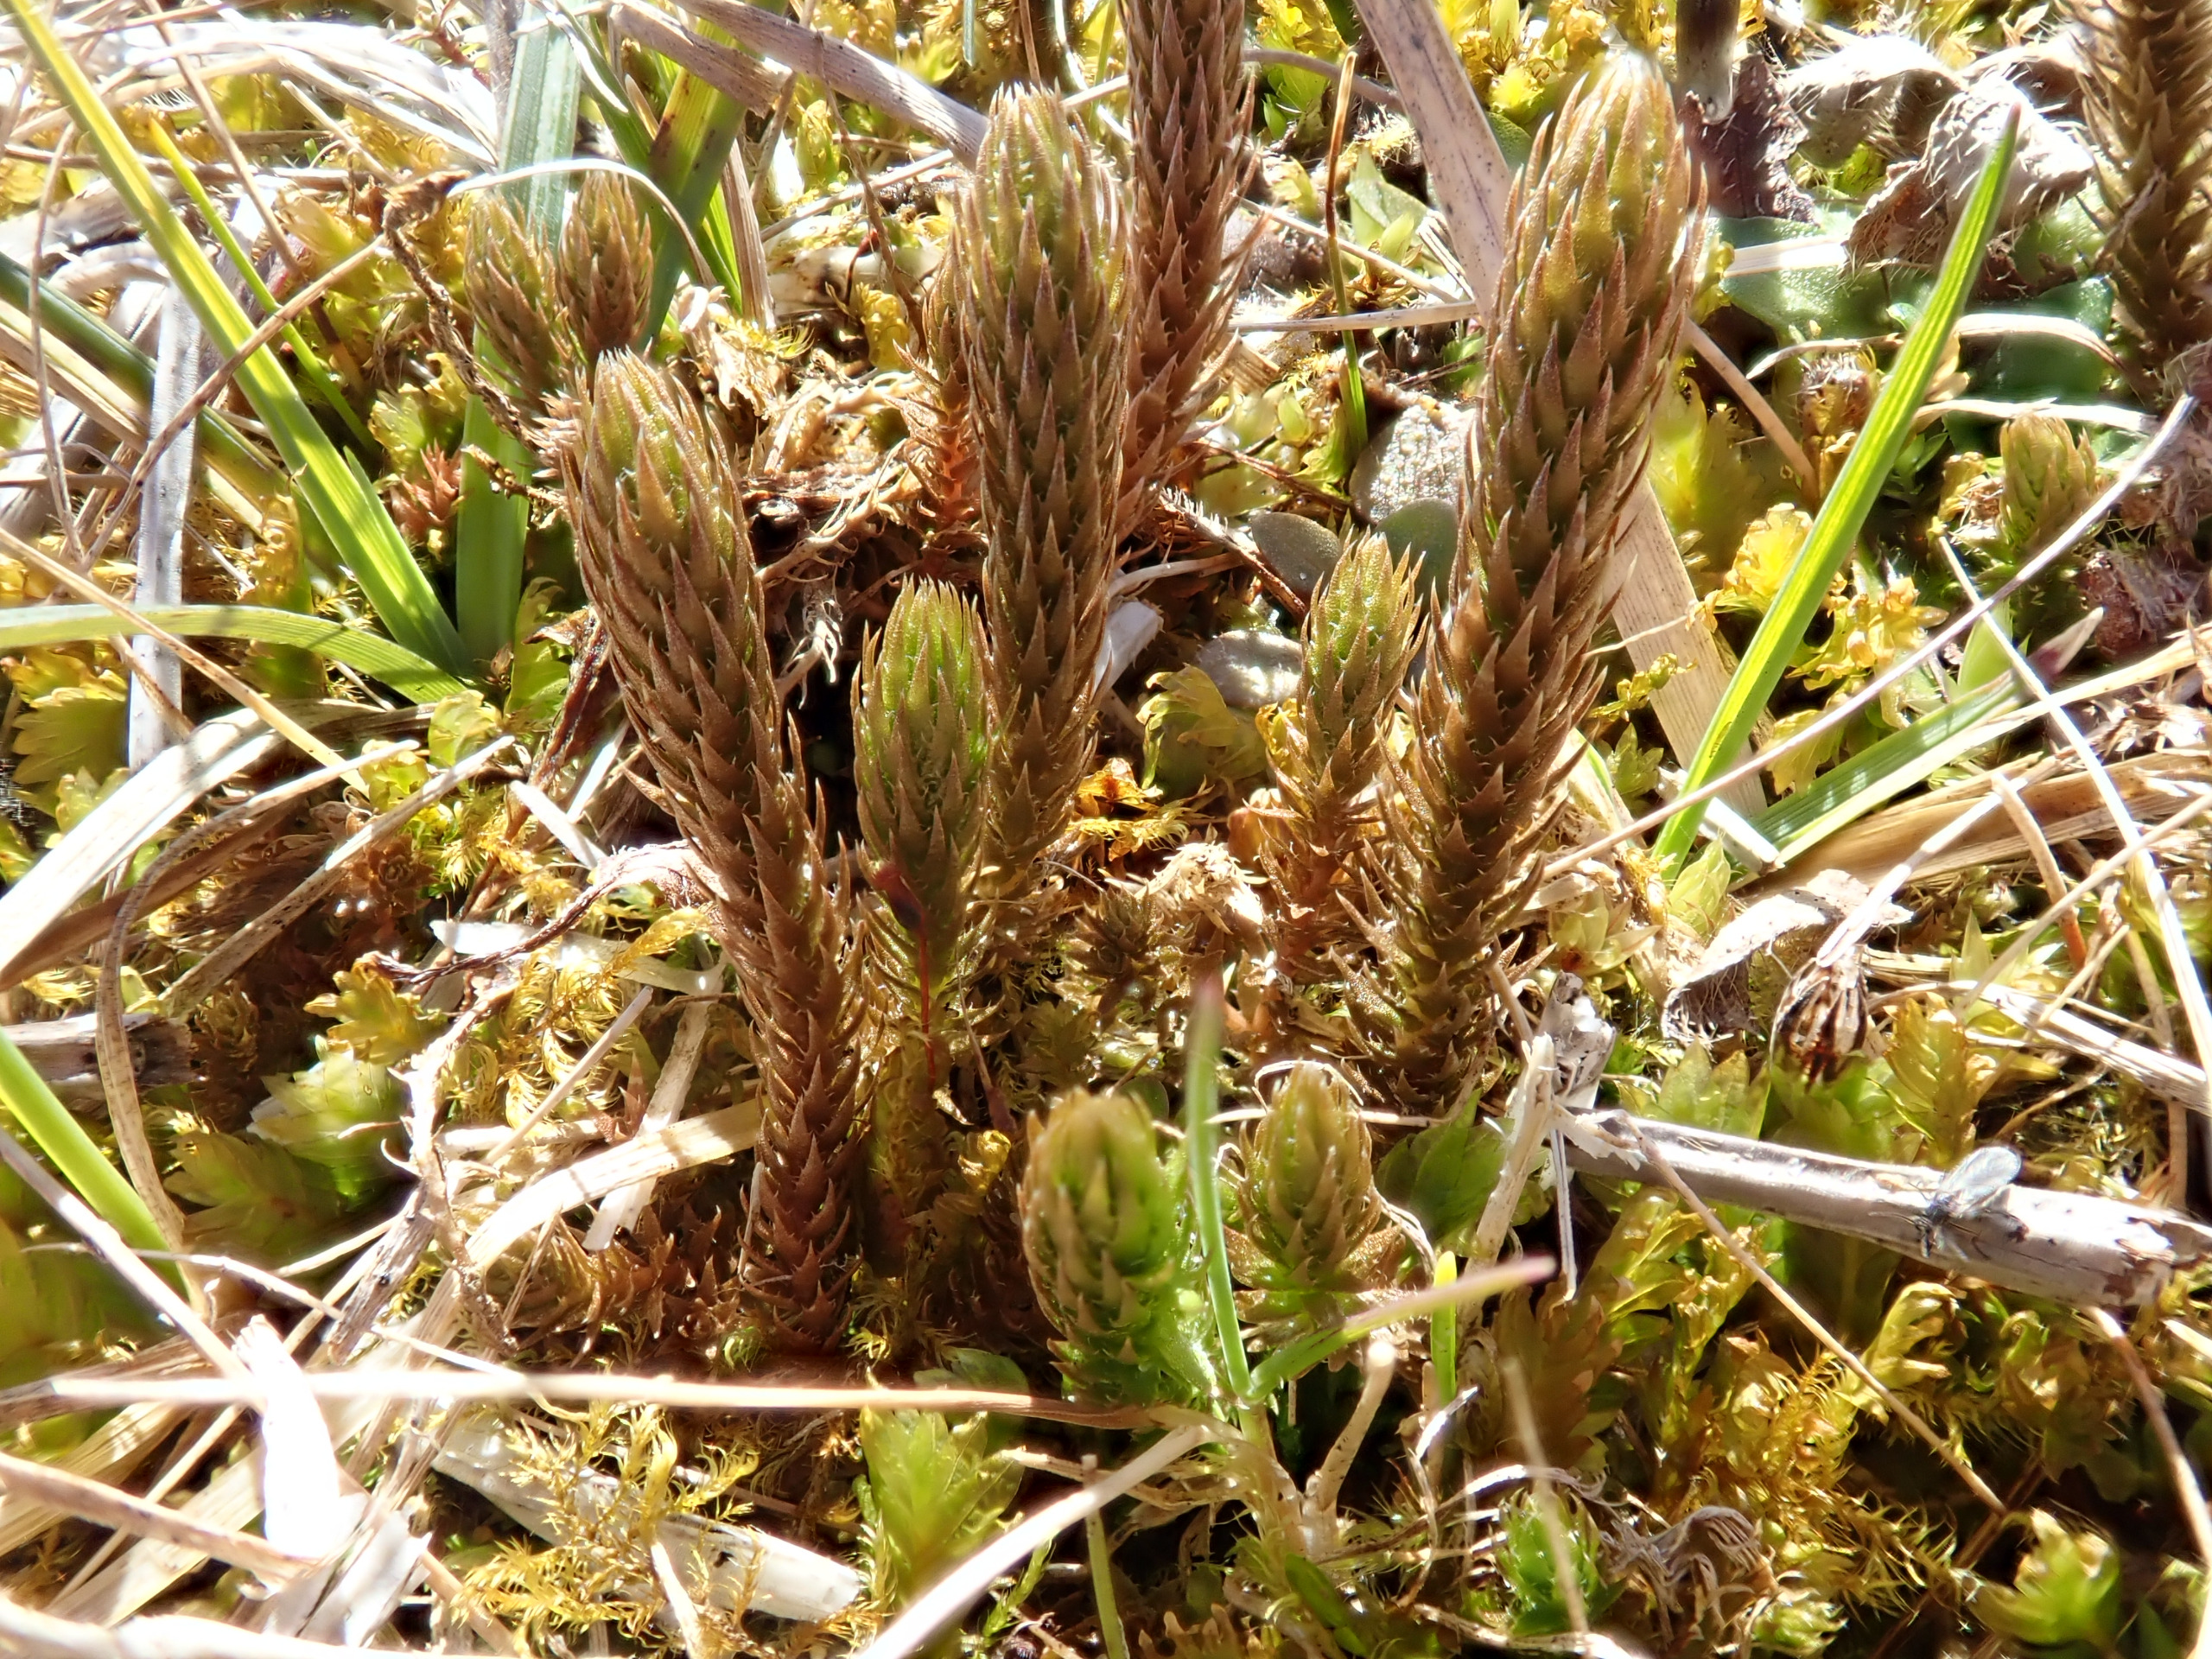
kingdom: Plantae
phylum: Tracheophyta
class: Lycopodiopsida
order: Selaginellales
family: Selaginellaceae
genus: Selaginella
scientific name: Selaginella selaginoides
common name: Dværgulvefod
